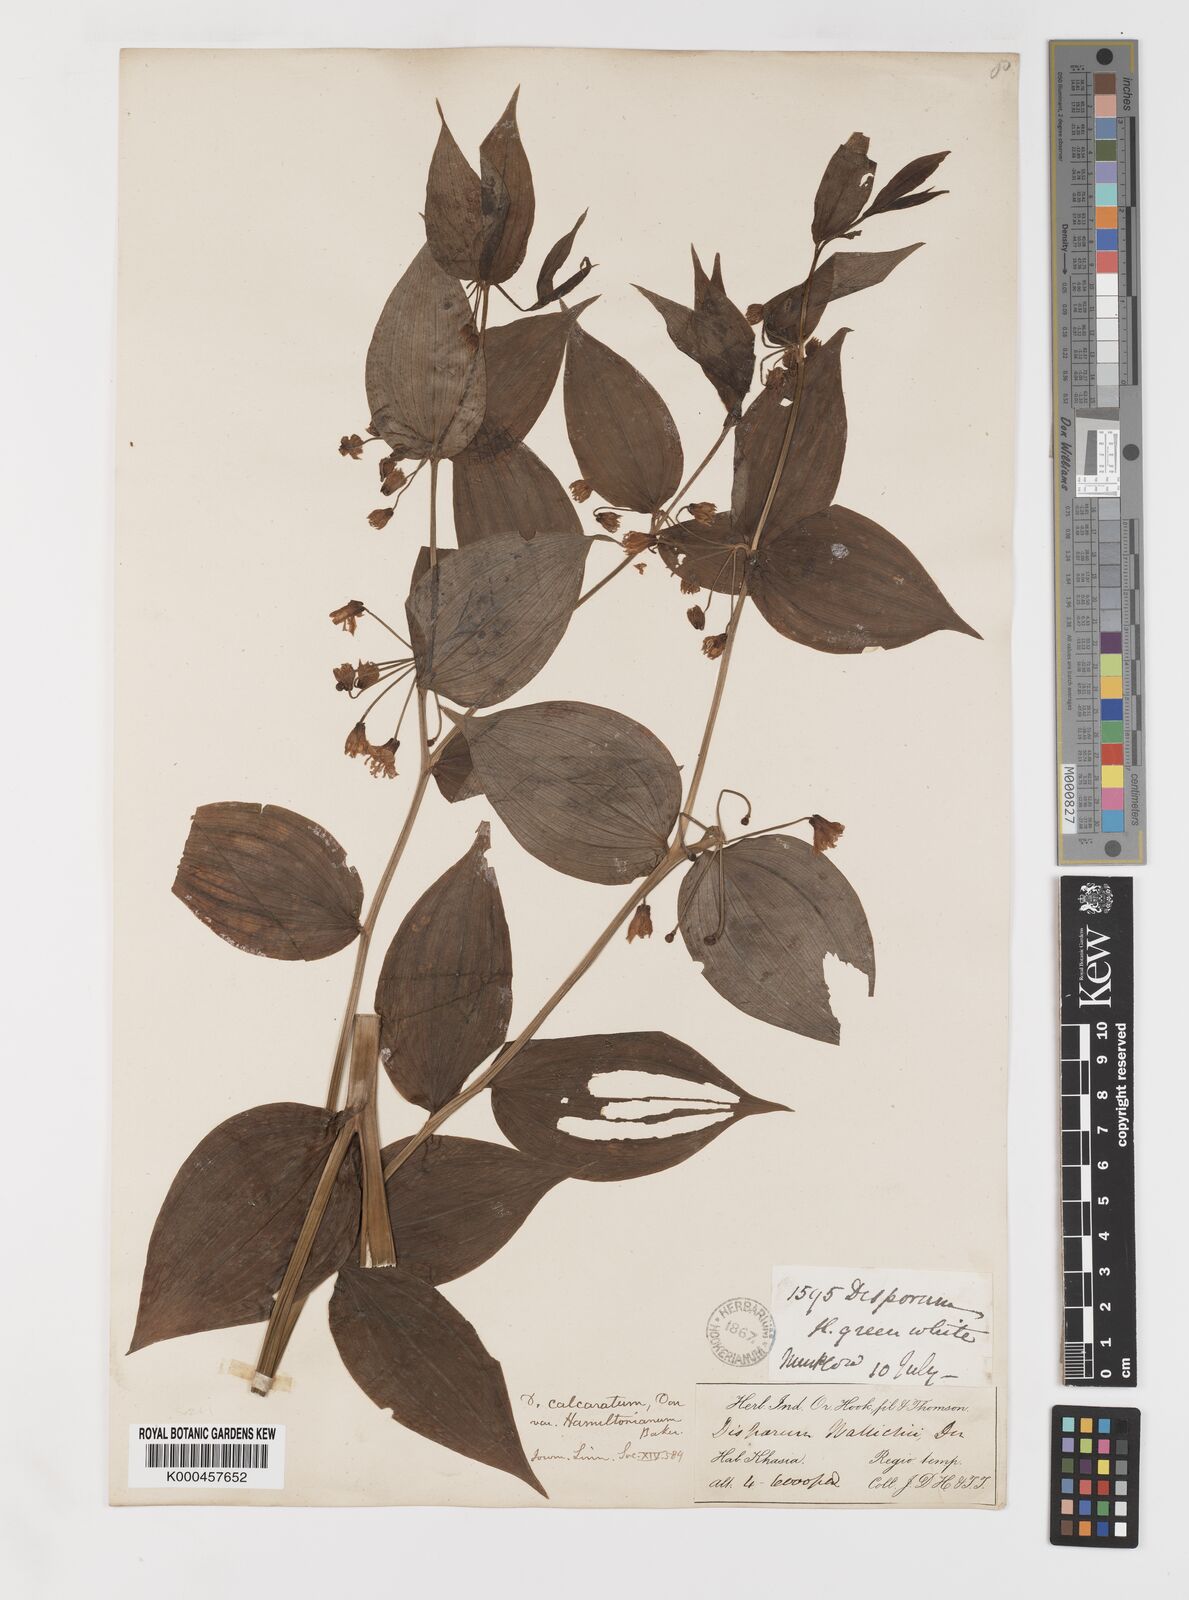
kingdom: Plantae
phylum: Tracheophyta
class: Liliopsida
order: Liliales
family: Colchicaceae
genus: Disporum
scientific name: Disporum calcaratum
